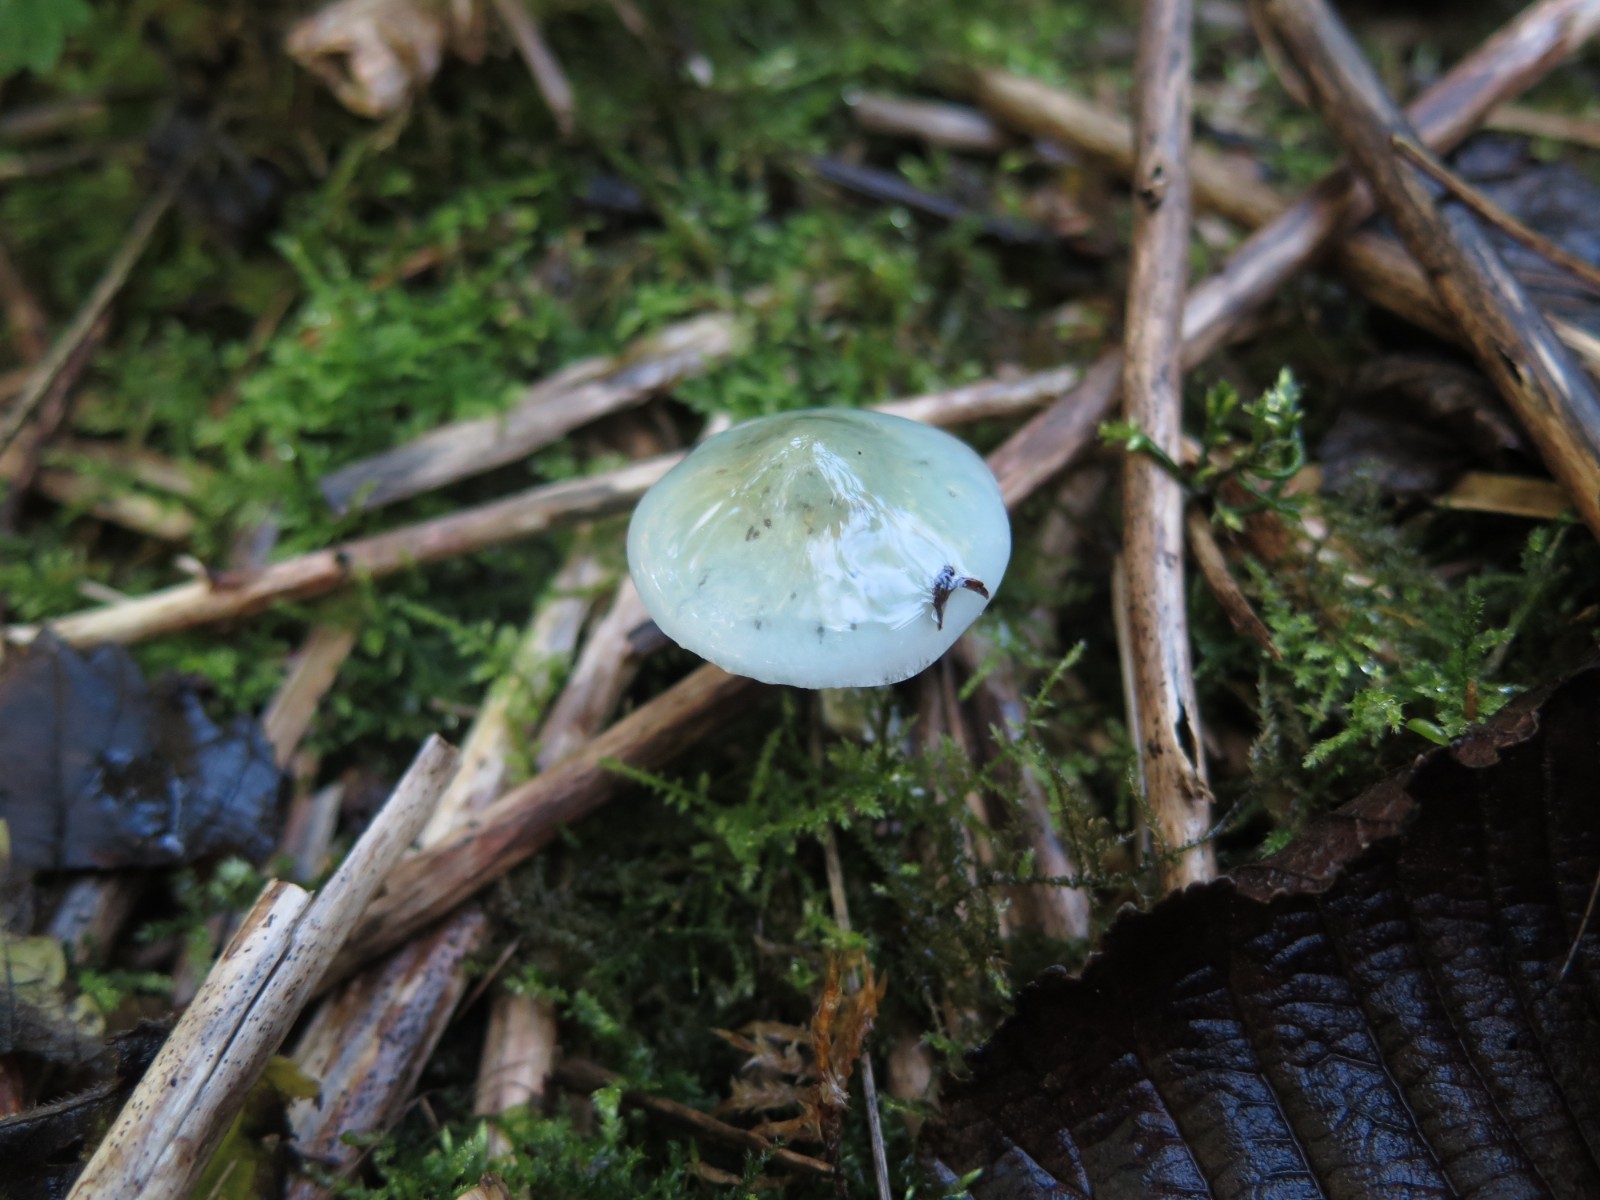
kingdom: Fungi
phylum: Basidiomycota
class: Agaricomycetes
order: Agaricales
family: Strophariaceae
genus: Stropharia
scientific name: Stropharia cyanea
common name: blågrøn bredblad
